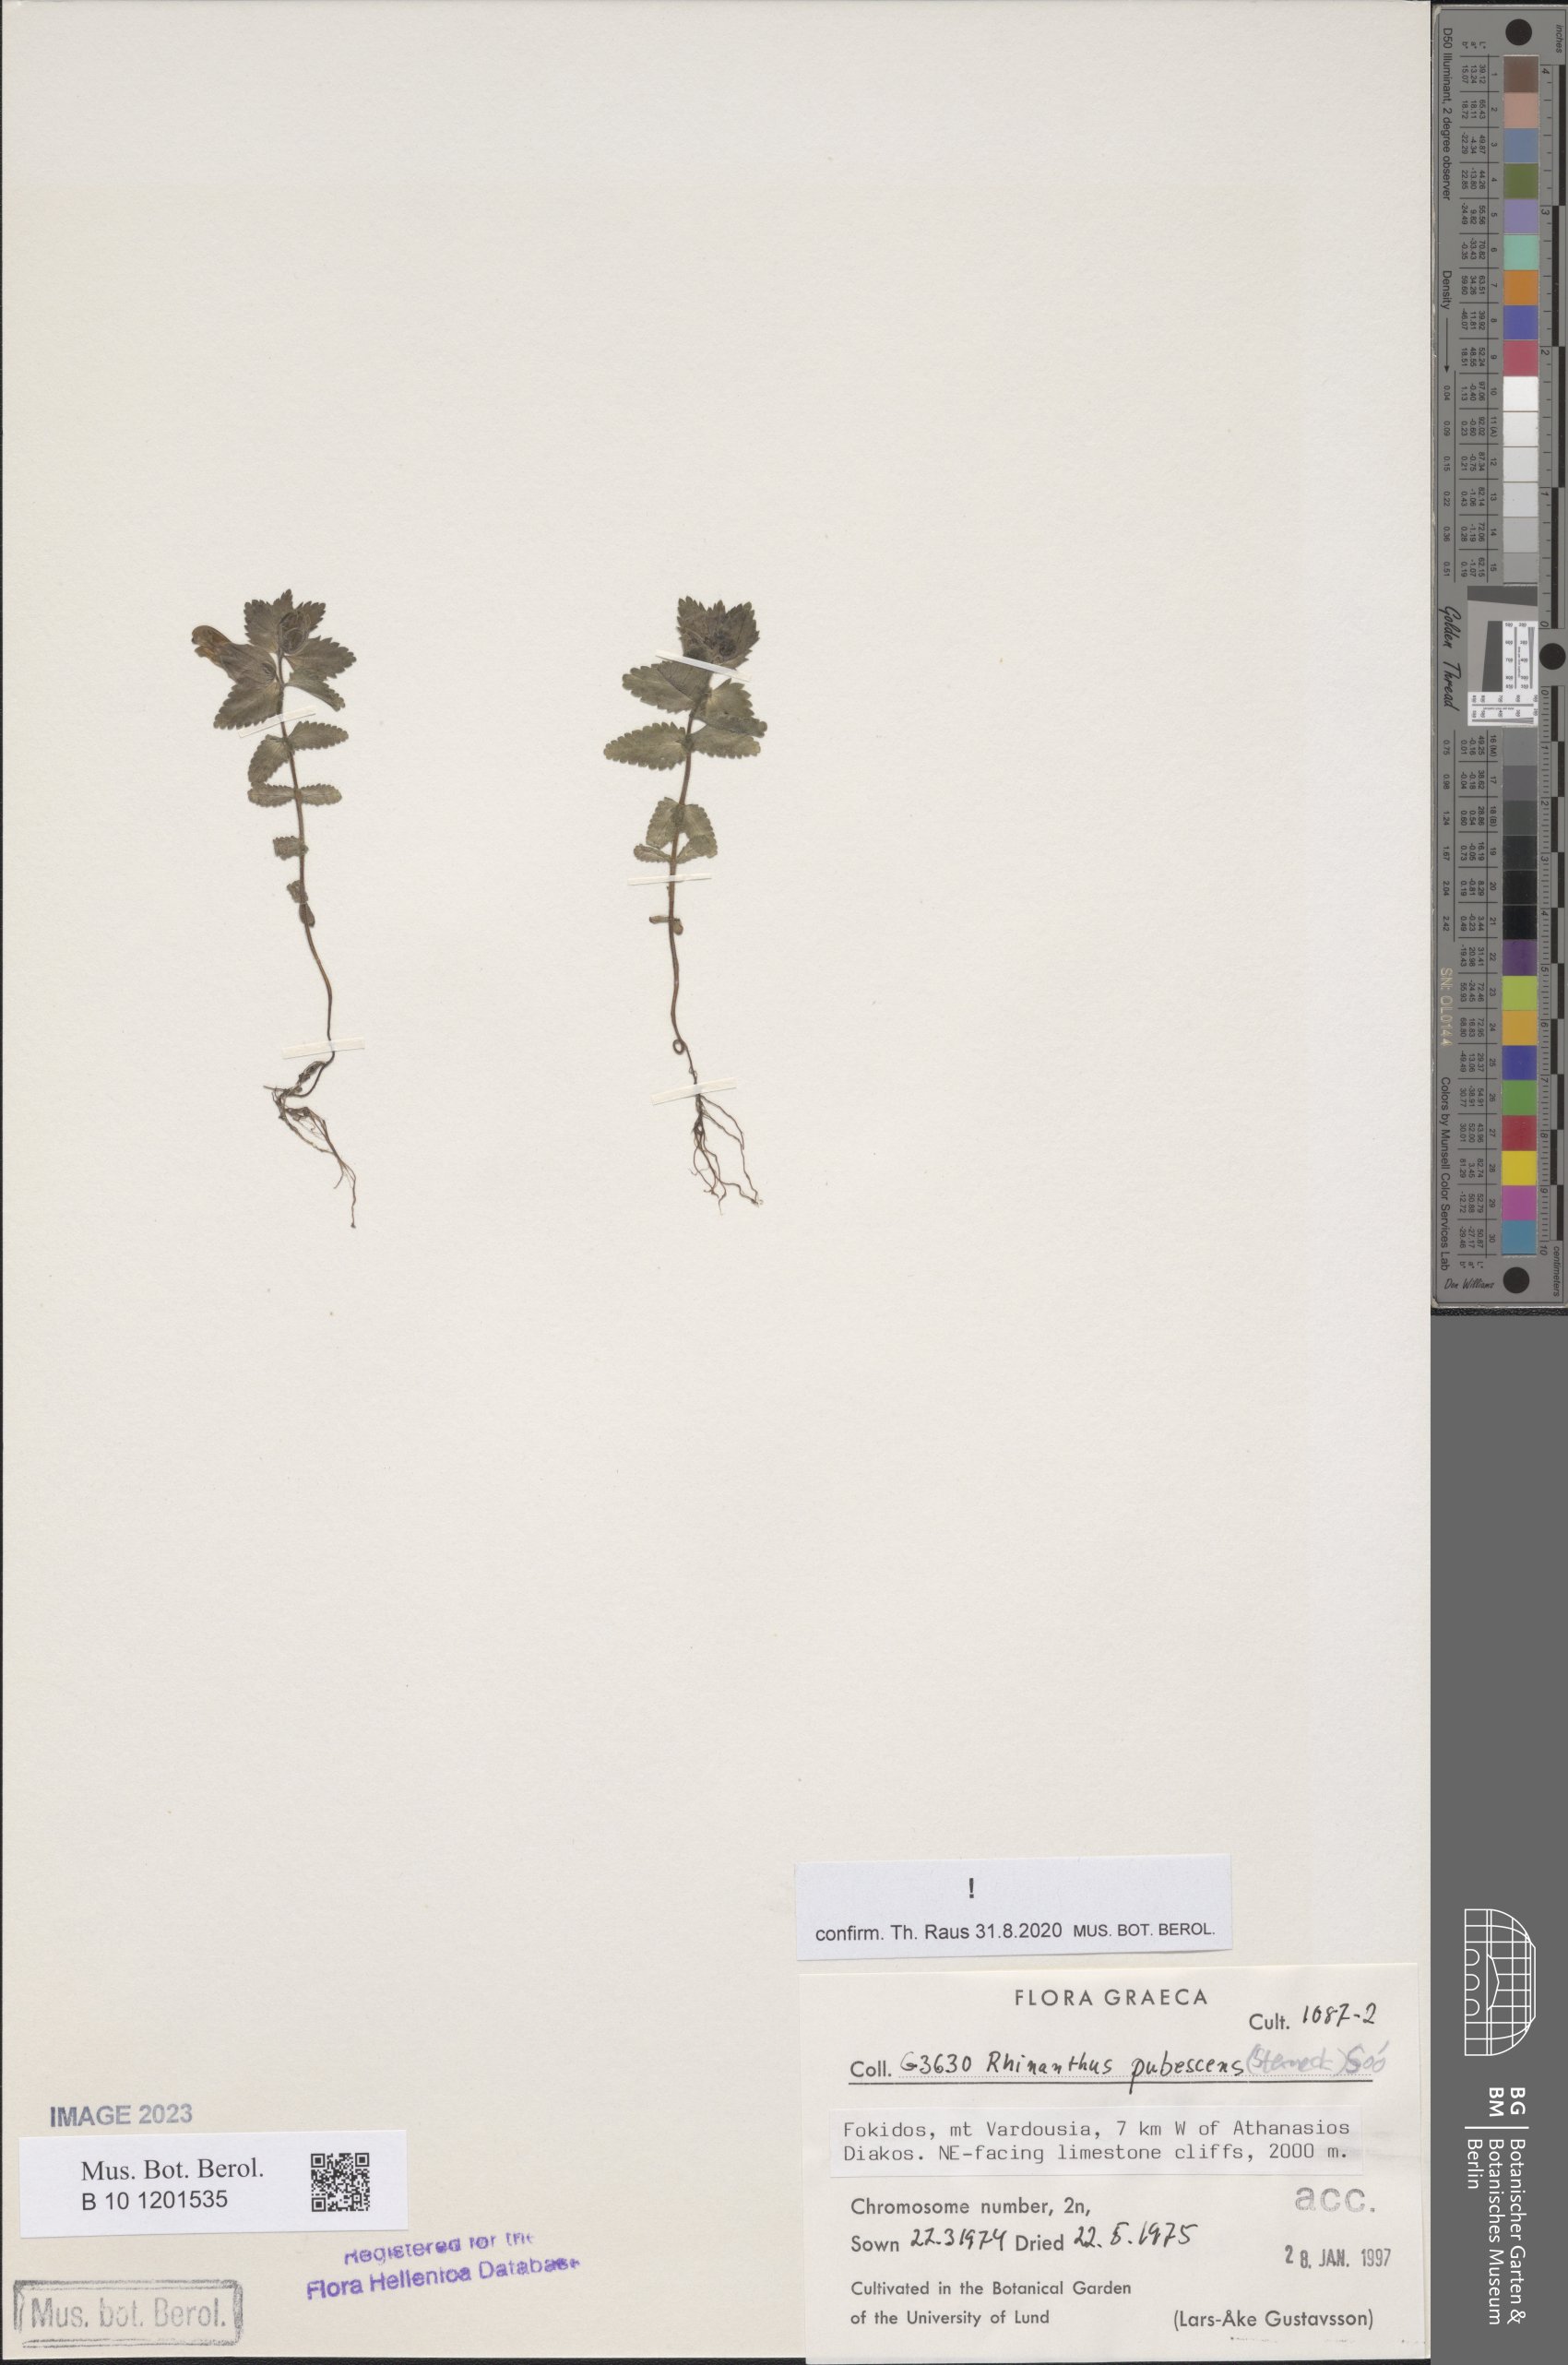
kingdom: Plantae
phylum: Tracheophyta
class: Magnoliopsida
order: Lamiales
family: Orobanchaceae
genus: Rhinanthus
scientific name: Rhinanthus pubescens
